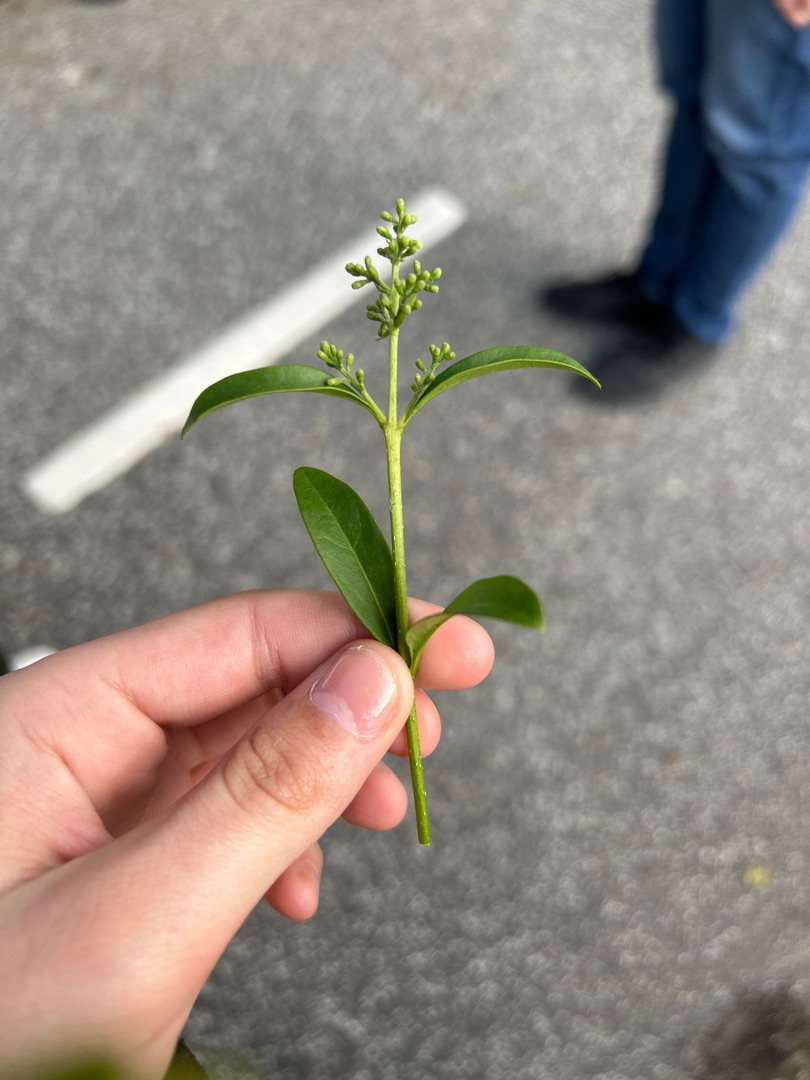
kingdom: Plantae
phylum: Tracheophyta
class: Magnoliopsida
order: Lamiales
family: Oleaceae
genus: Ligustrum
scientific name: Ligustrum vulgare
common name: Liguster
